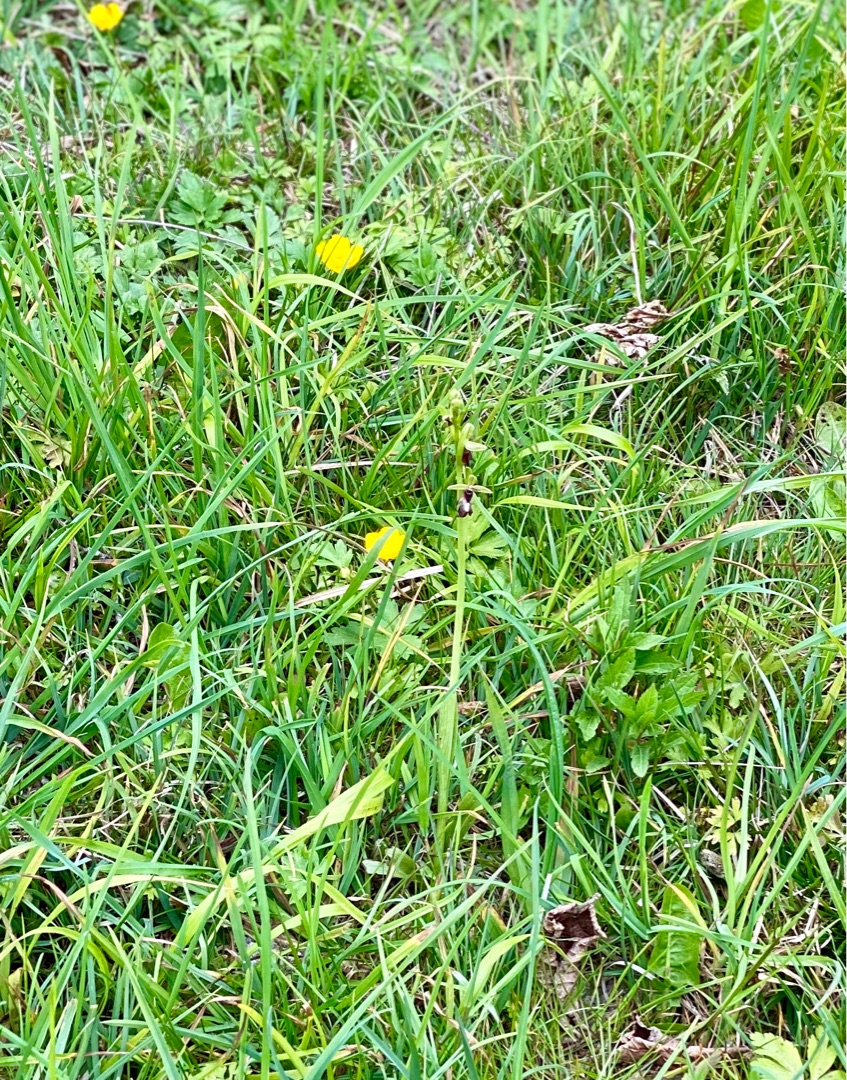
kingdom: Plantae
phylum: Tracheophyta
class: Liliopsida
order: Asparagales
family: Orchidaceae
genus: Ophrys
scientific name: Ophrys insectifera
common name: Flueblomst
